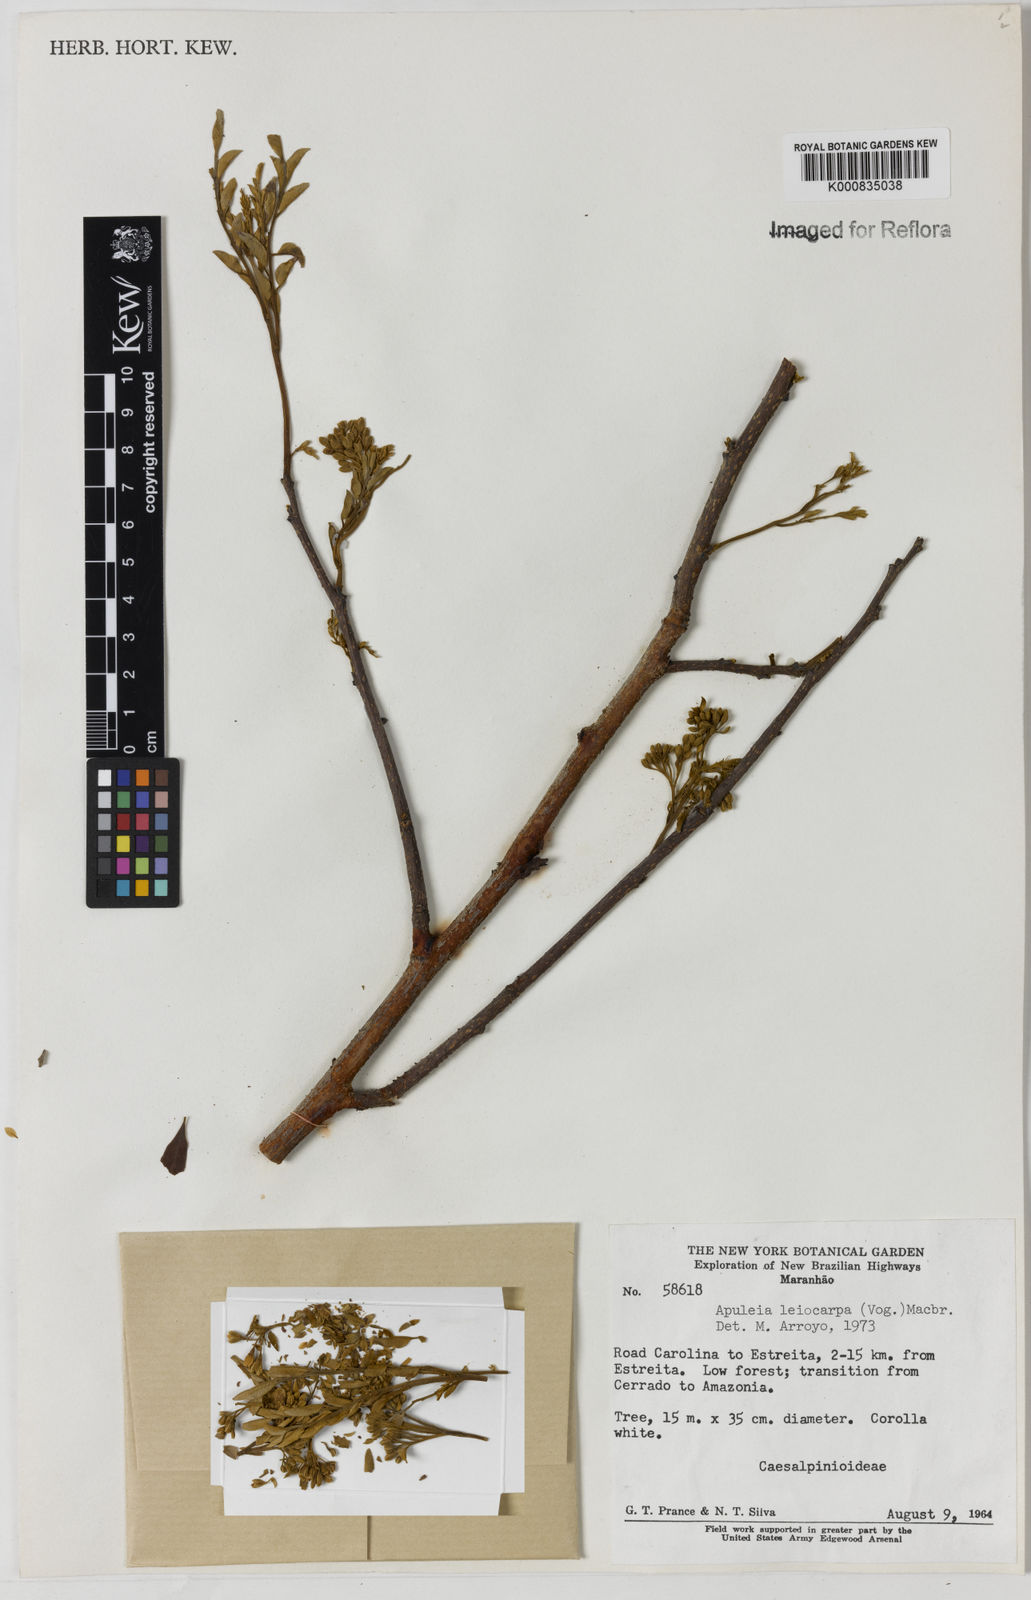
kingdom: Plantae
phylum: Tracheophyta
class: Magnoliopsida
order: Fabales
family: Fabaceae
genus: Apuleia
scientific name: Apuleia leiocarpa
